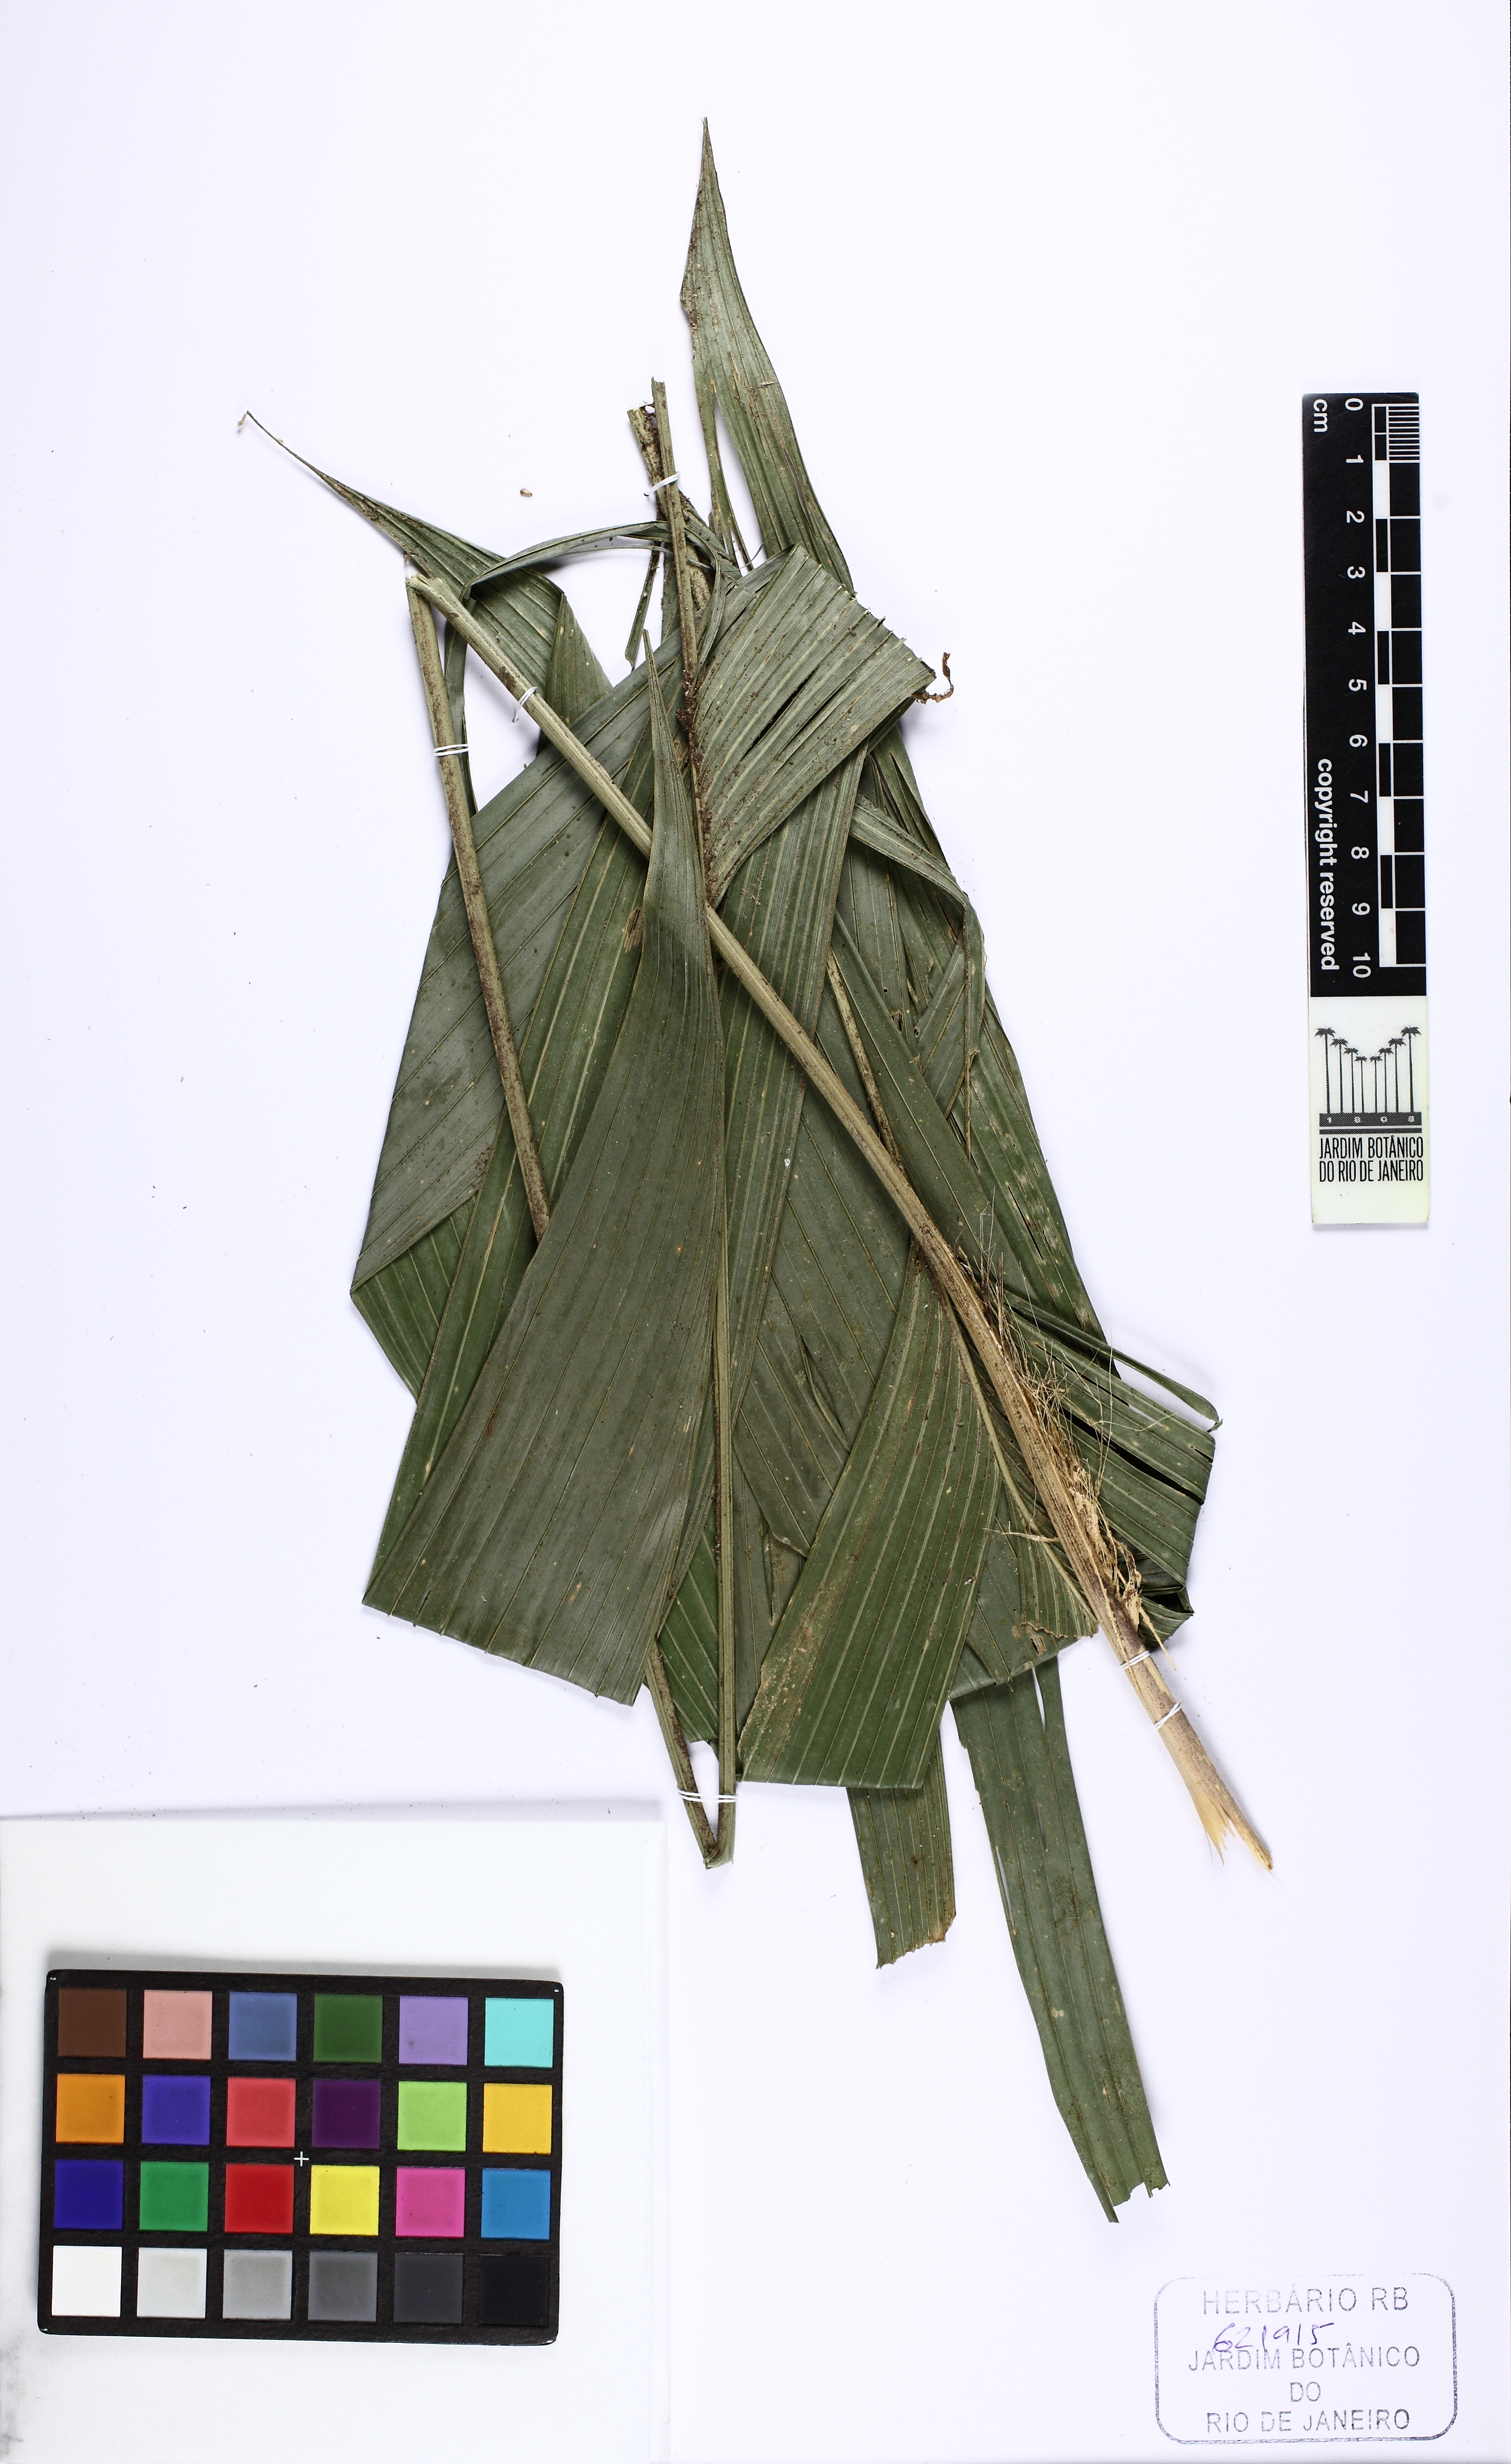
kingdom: Plantae
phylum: Tracheophyta
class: Liliopsida
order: Arecales
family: Arecaceae
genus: Geonoma
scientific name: Geonoma pohliana
